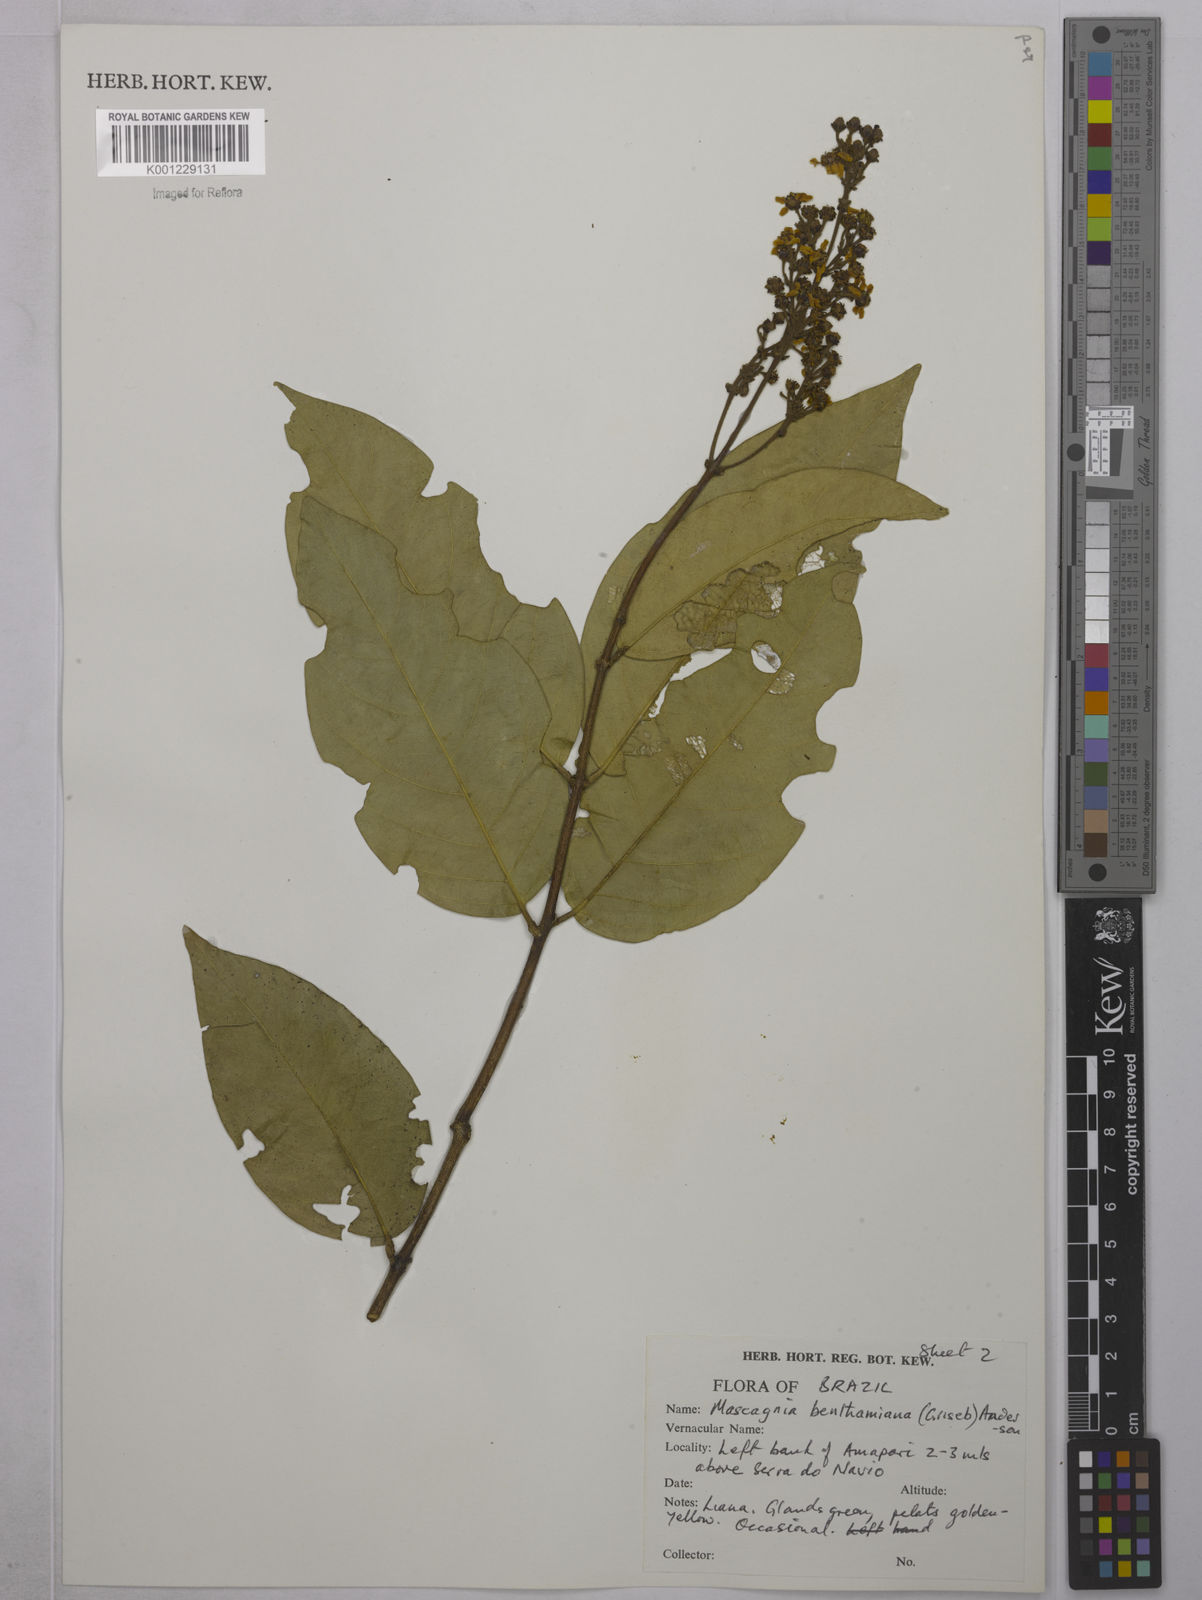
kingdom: Plantae
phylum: Tracheophyta
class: Magnoliopsida
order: Malpighiales
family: Malpighiaceae
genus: Niedenzuella
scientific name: Niedenzuella stannea
